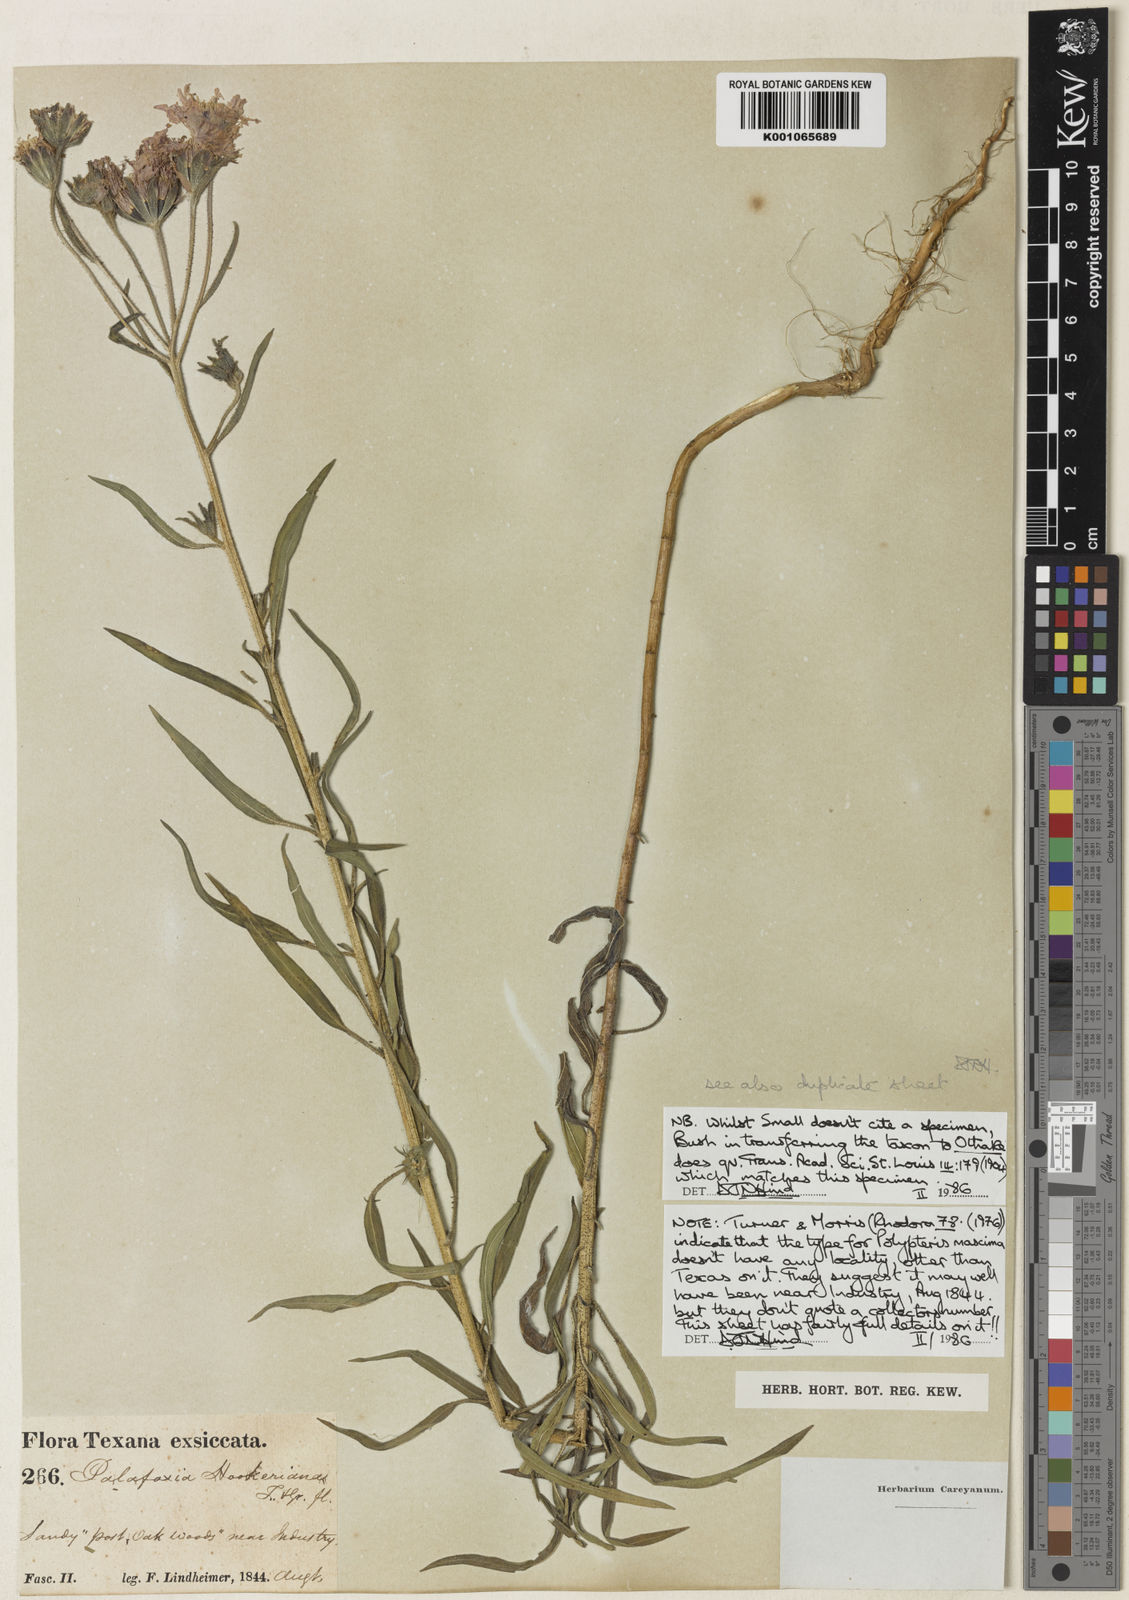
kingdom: Plantae
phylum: Tracheophyta
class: Magnoliopsida
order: Asterales
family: Asteraceae
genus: Palafoxia
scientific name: Palafoxia hookeriana
